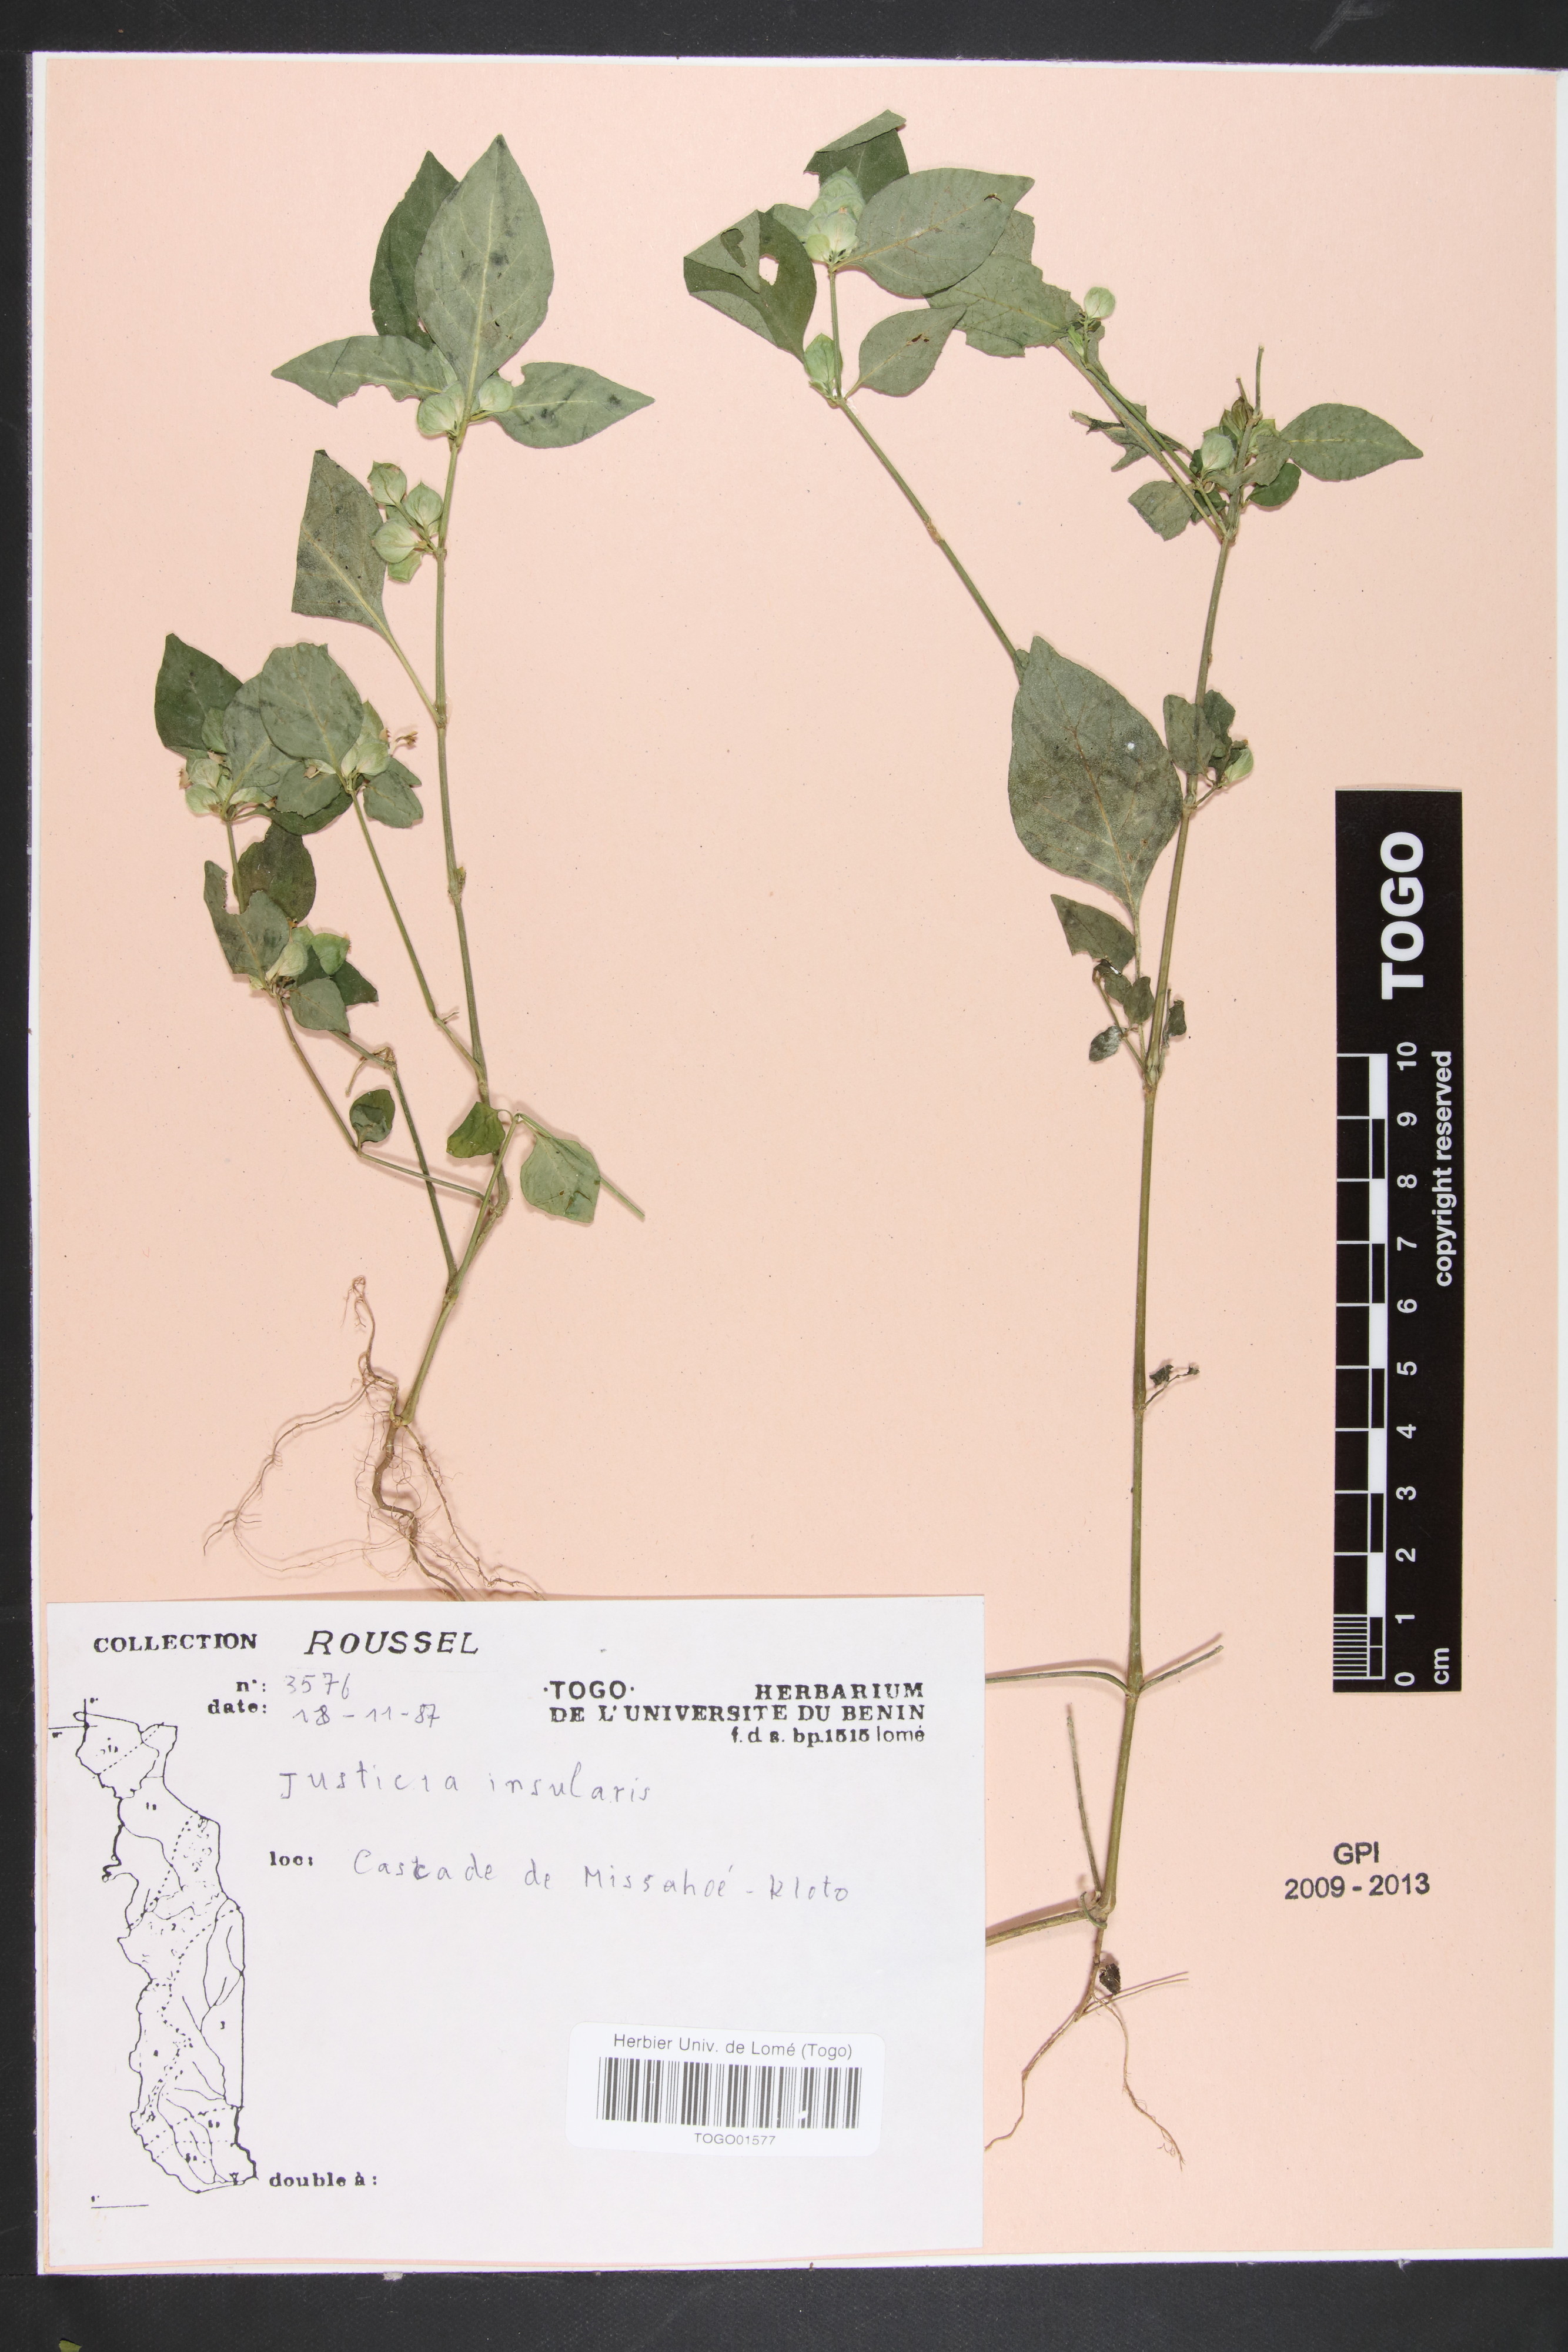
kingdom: Plantae
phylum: Tracheophyta
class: Magnoliopsida
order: Lamiales
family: Acanthaceae
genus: Justicia
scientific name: Justicia insularis
